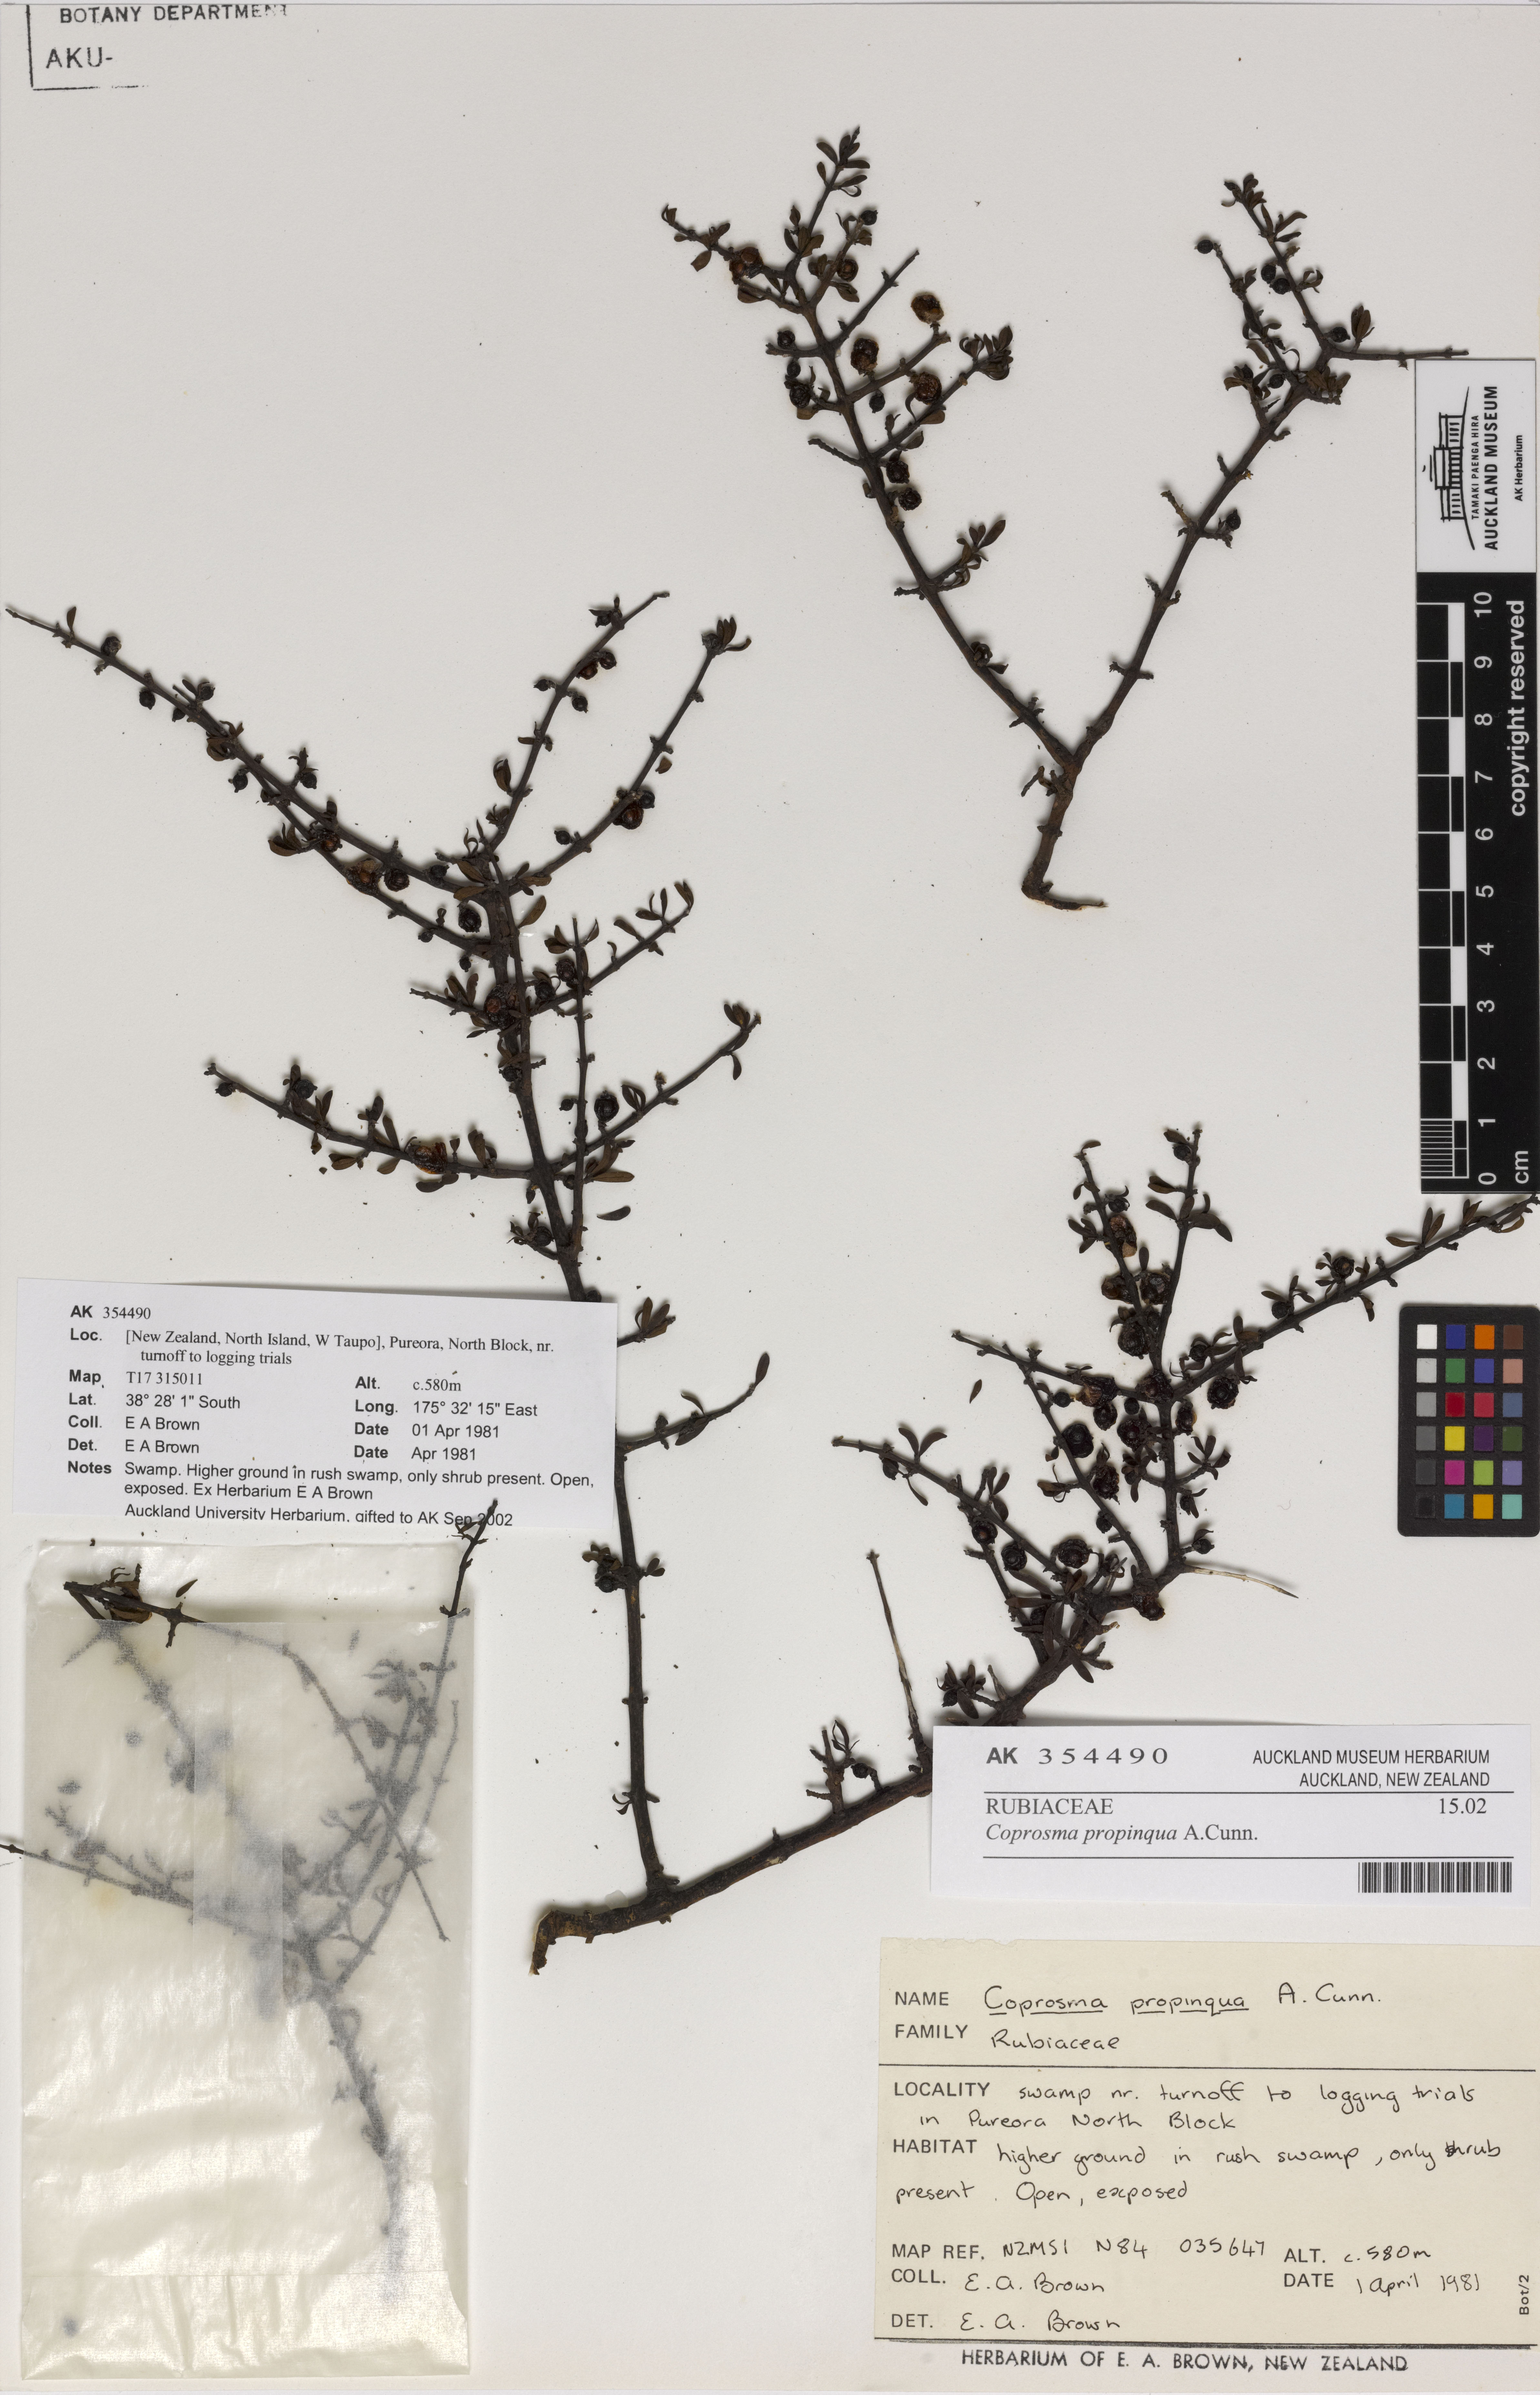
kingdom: Plantae
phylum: Tracheophyta
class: Magnoliopsida
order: Gentianales
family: Rubiaceae
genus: Coprosma
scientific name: Coprosma propinqua
